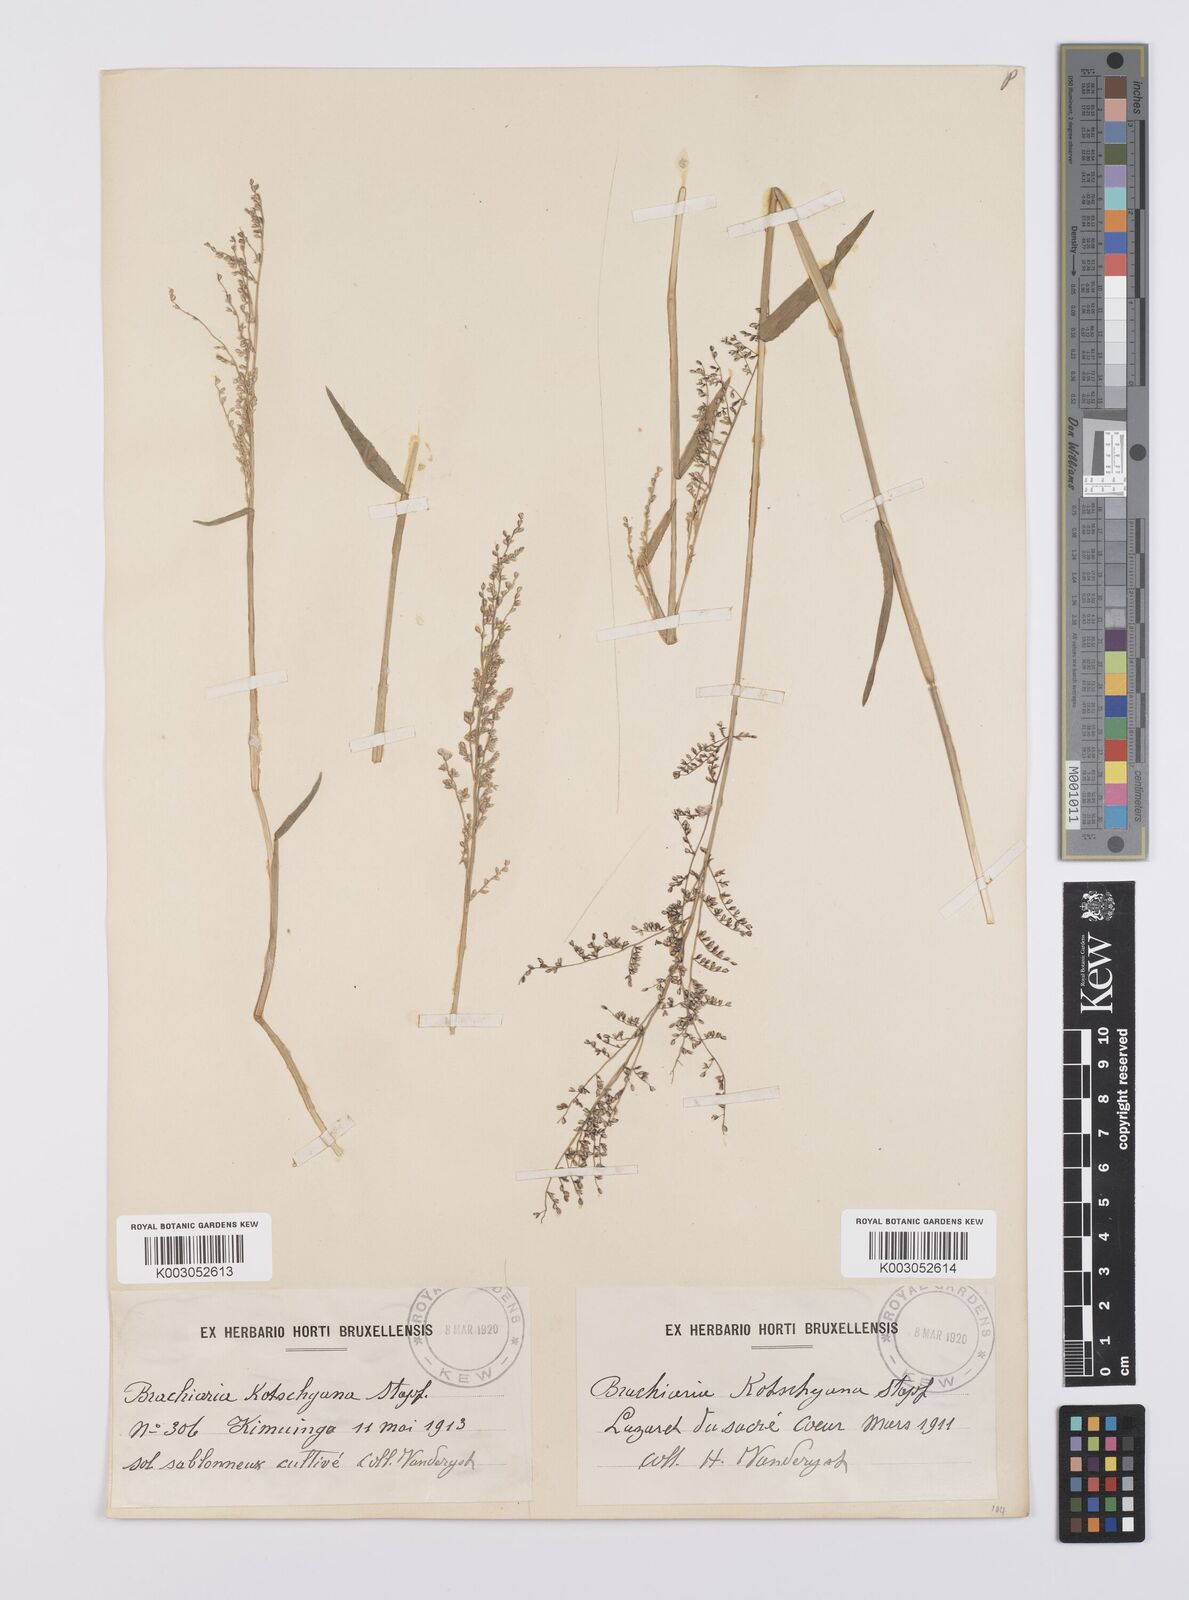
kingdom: Plantae
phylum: Tracheophyta
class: Liliopsida
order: Poales
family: Poaceae
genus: Urochloa
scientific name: Urochloa comata
